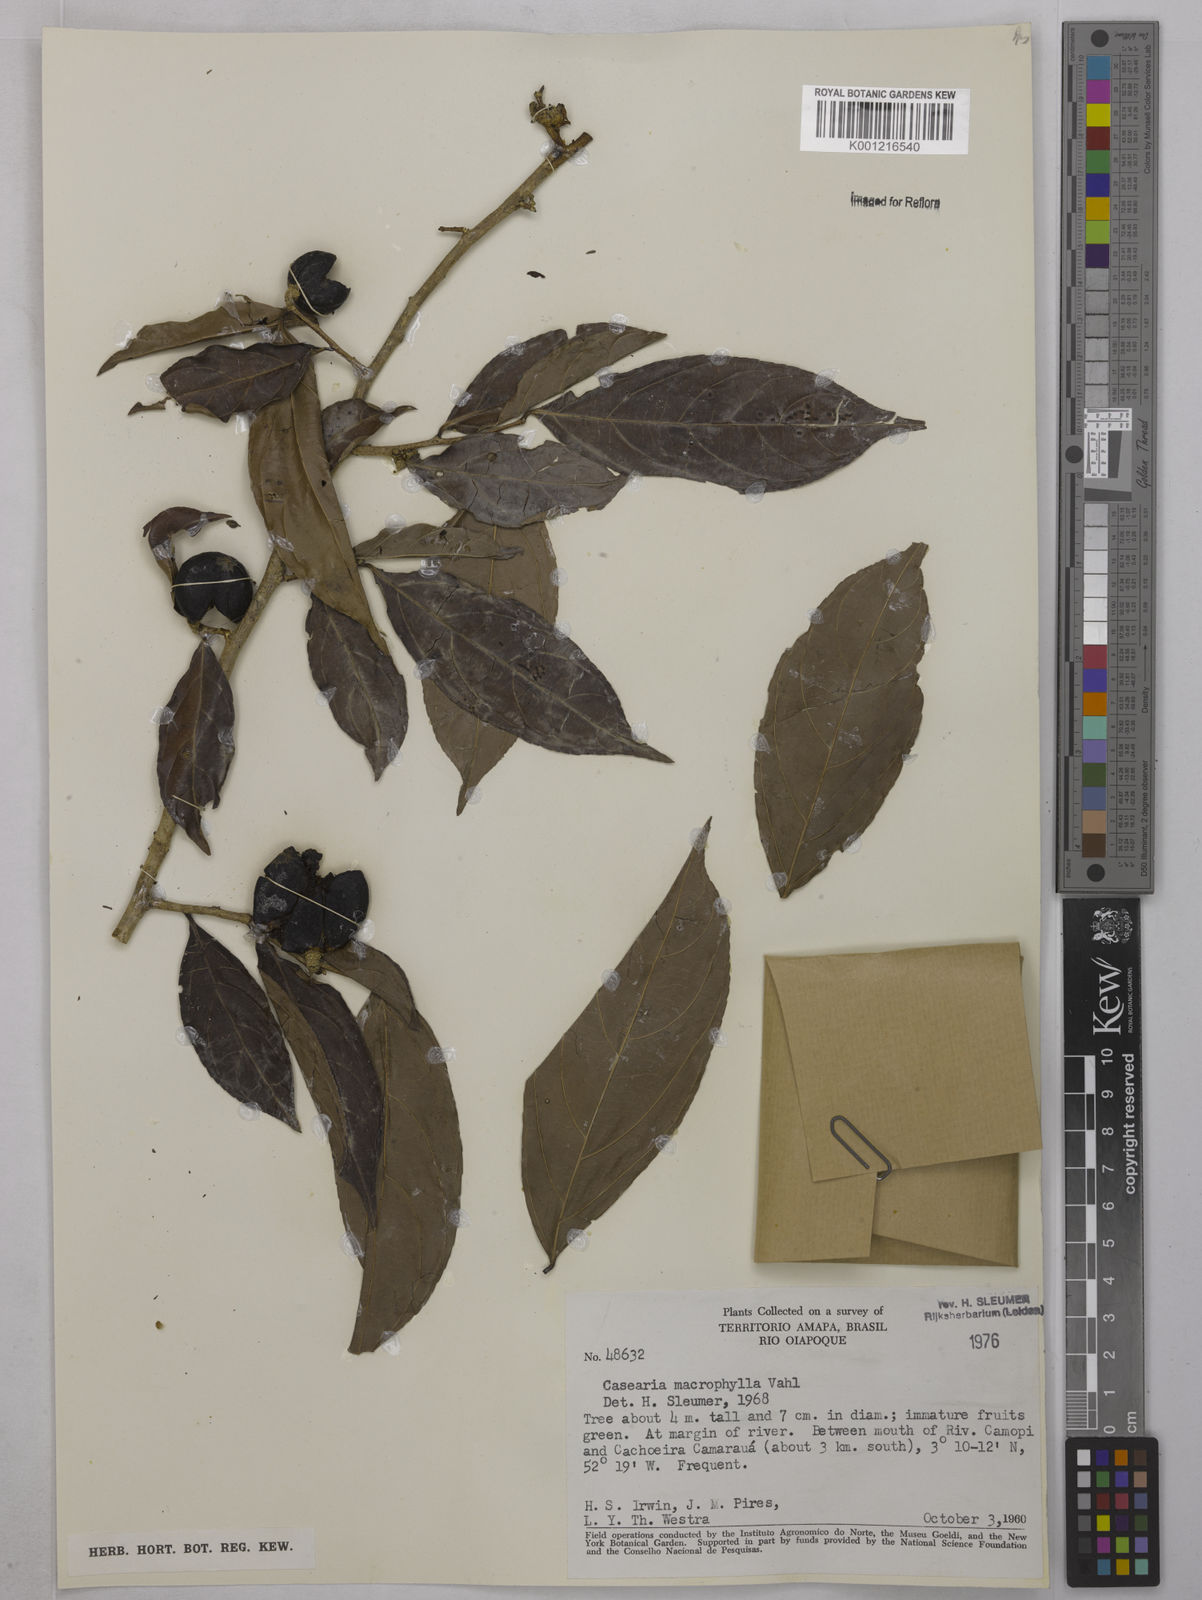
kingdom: Plantae
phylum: Tracheophyta
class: Magnoliopsida
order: Malpighiales
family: Salicaceae
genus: Casearia
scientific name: Casearia pitumba
